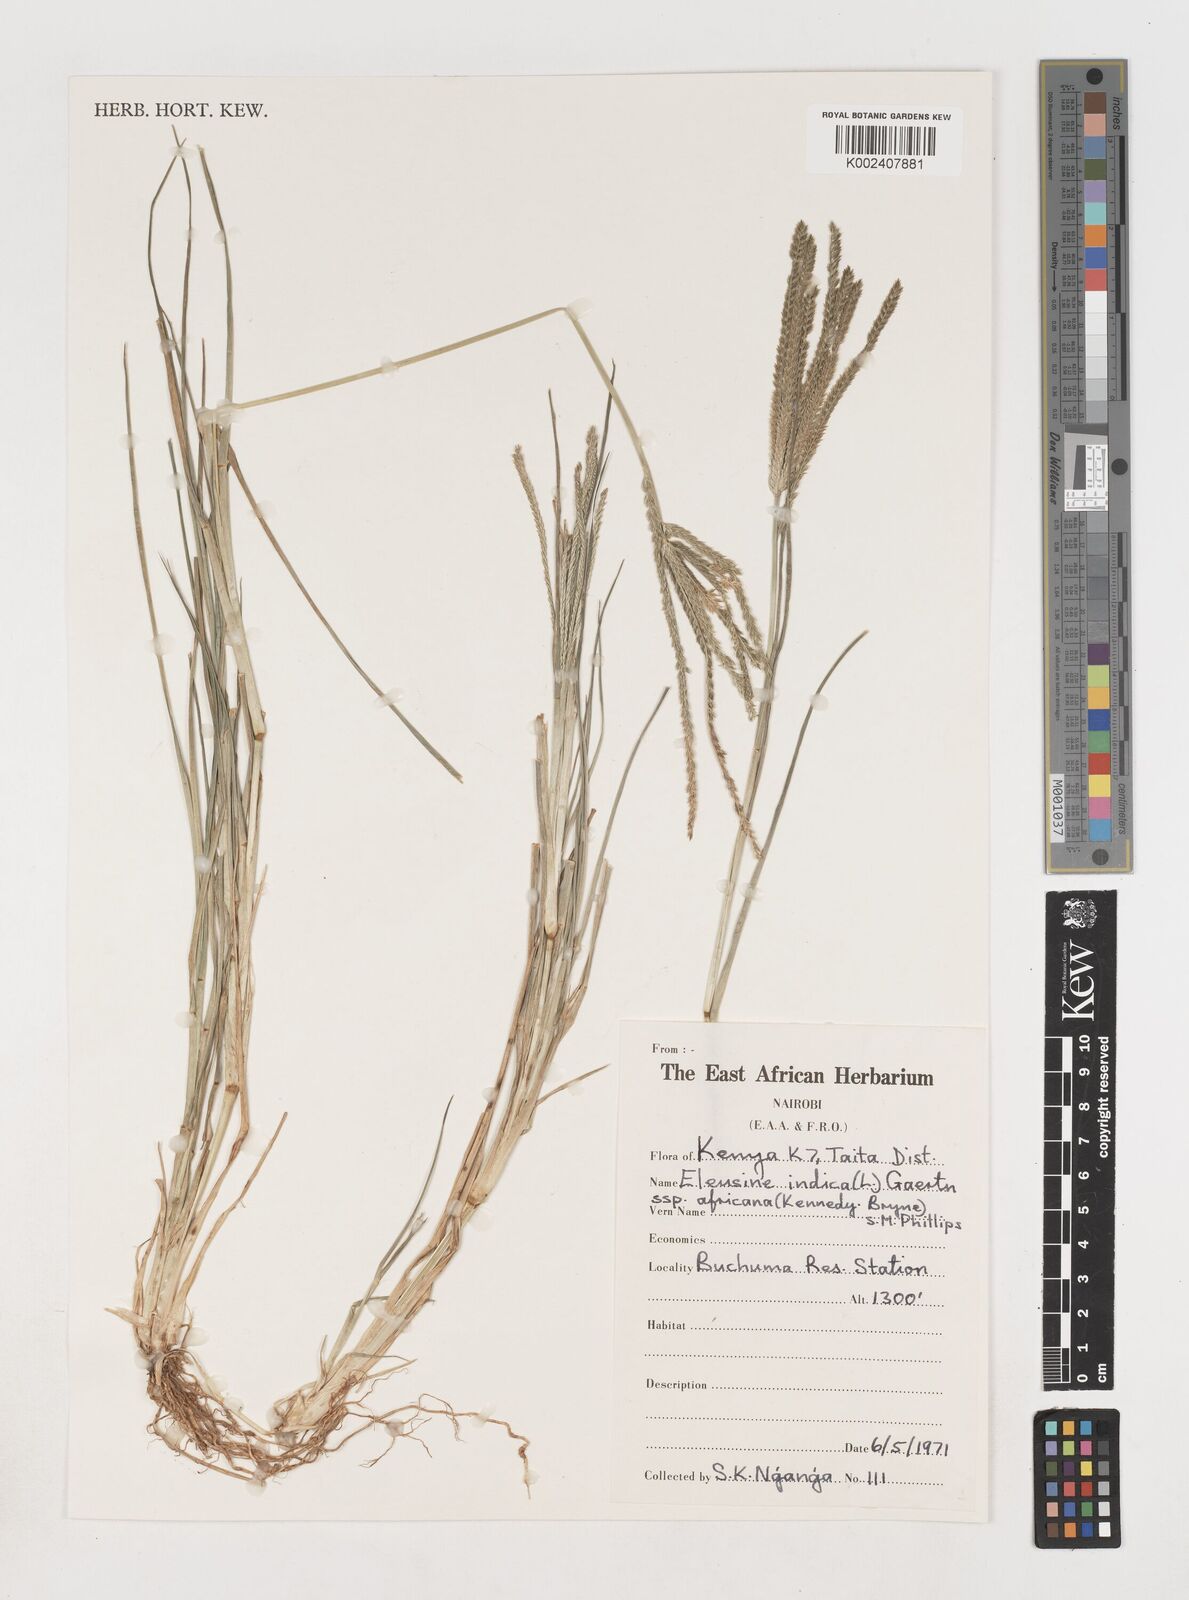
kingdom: Plantae
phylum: Tracheophyta
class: Liliopsida
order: Poales
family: Poaceae
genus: Eleusine
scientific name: Eleusine africana
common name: Wild african finger millet
